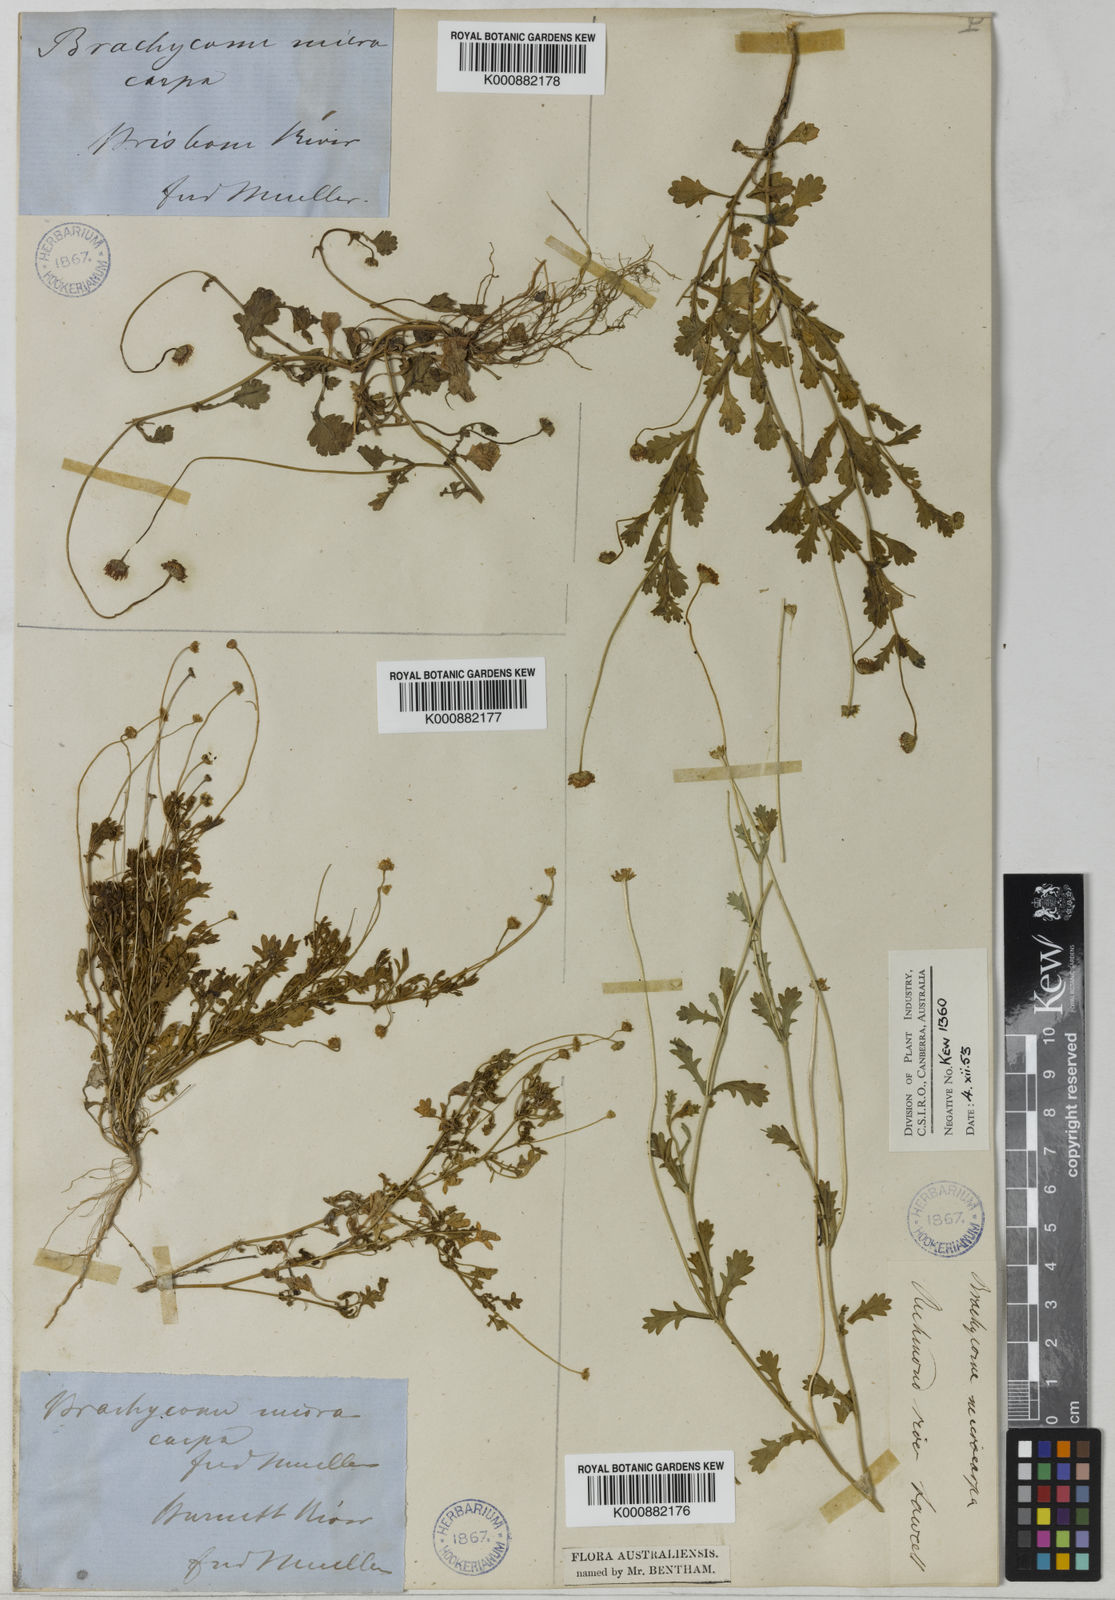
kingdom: Plantae
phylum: Tracheophyta
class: Magnoliopsida
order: Asterales
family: Asteraceae
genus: Brachyscome
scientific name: Brachyscome microcarpa
